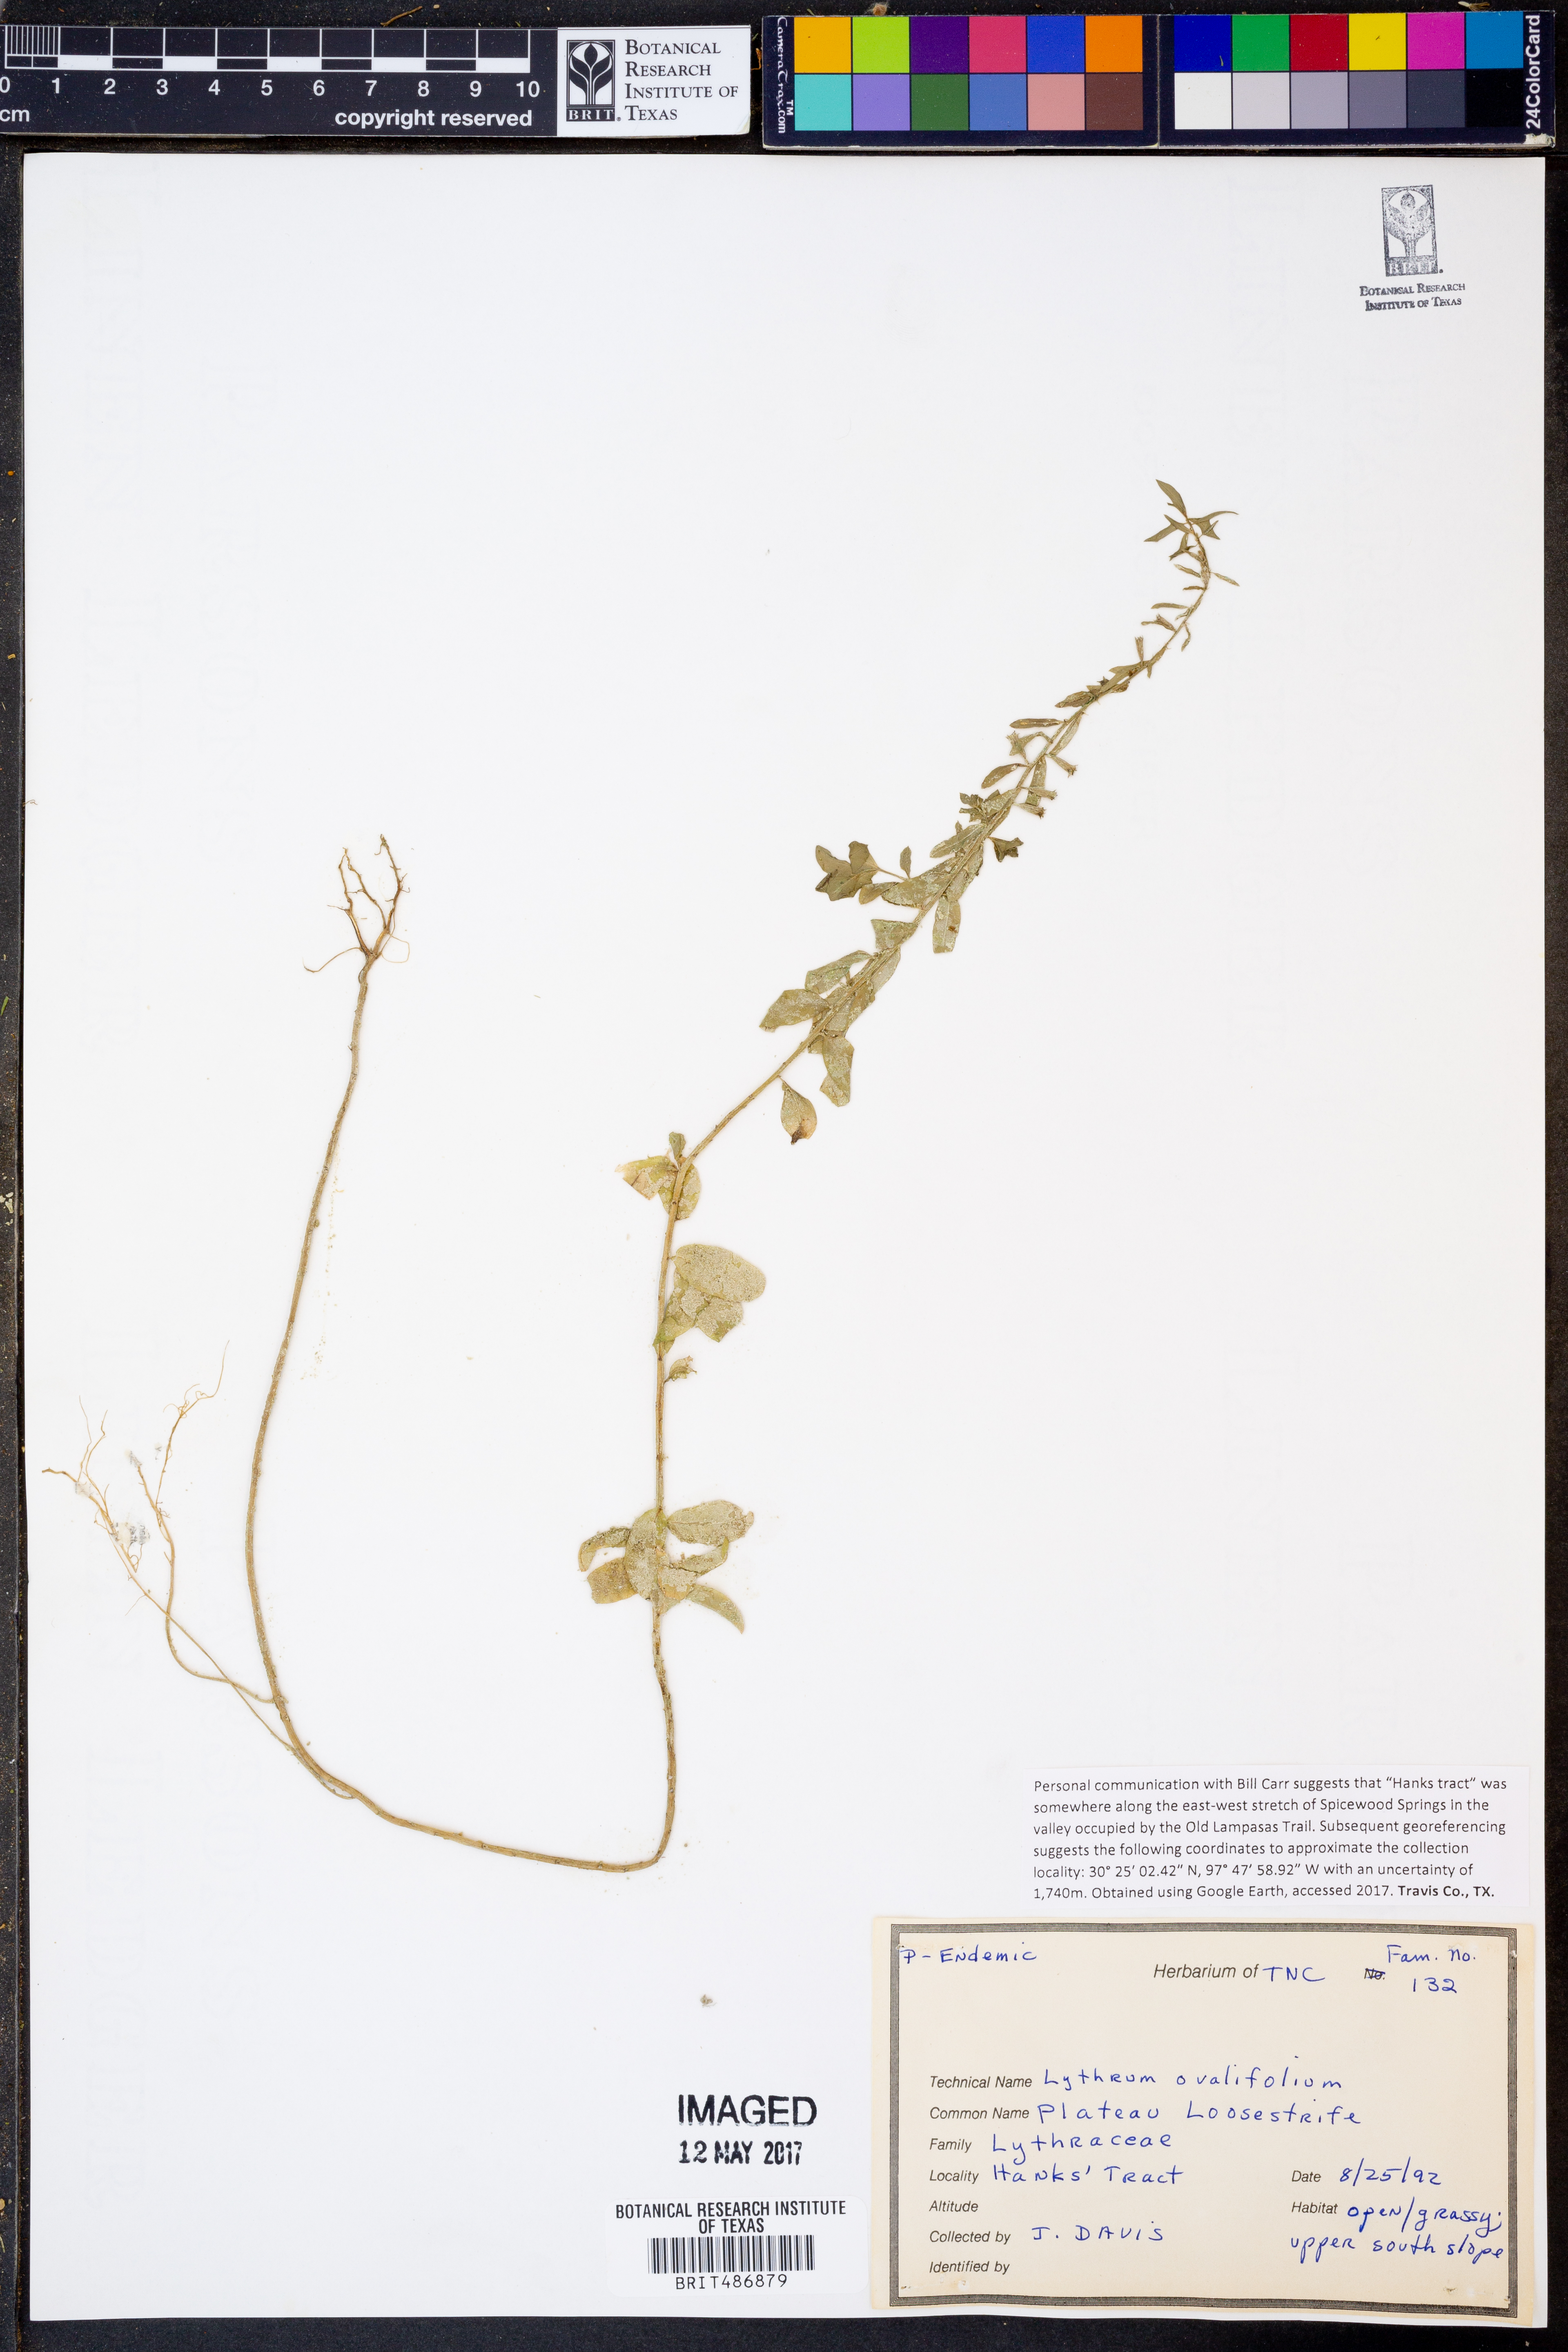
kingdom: Plantae
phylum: Tracheophyta
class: Magnoliopsida
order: Myrtales
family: Lythraceae
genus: Lythrum
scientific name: Lythrum ovalifolium
